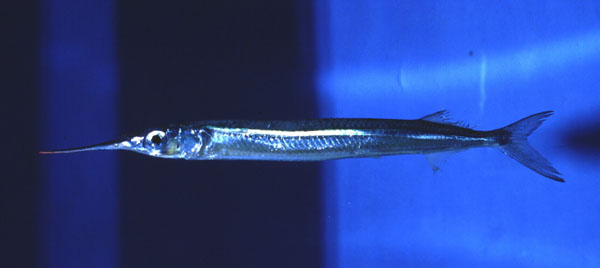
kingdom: Animalia
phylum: Chordata
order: Beloniformes
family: Hemiramphidae
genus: Hyporhamphus
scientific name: Hyporhamphus affinis
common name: Tropical halfbeak
